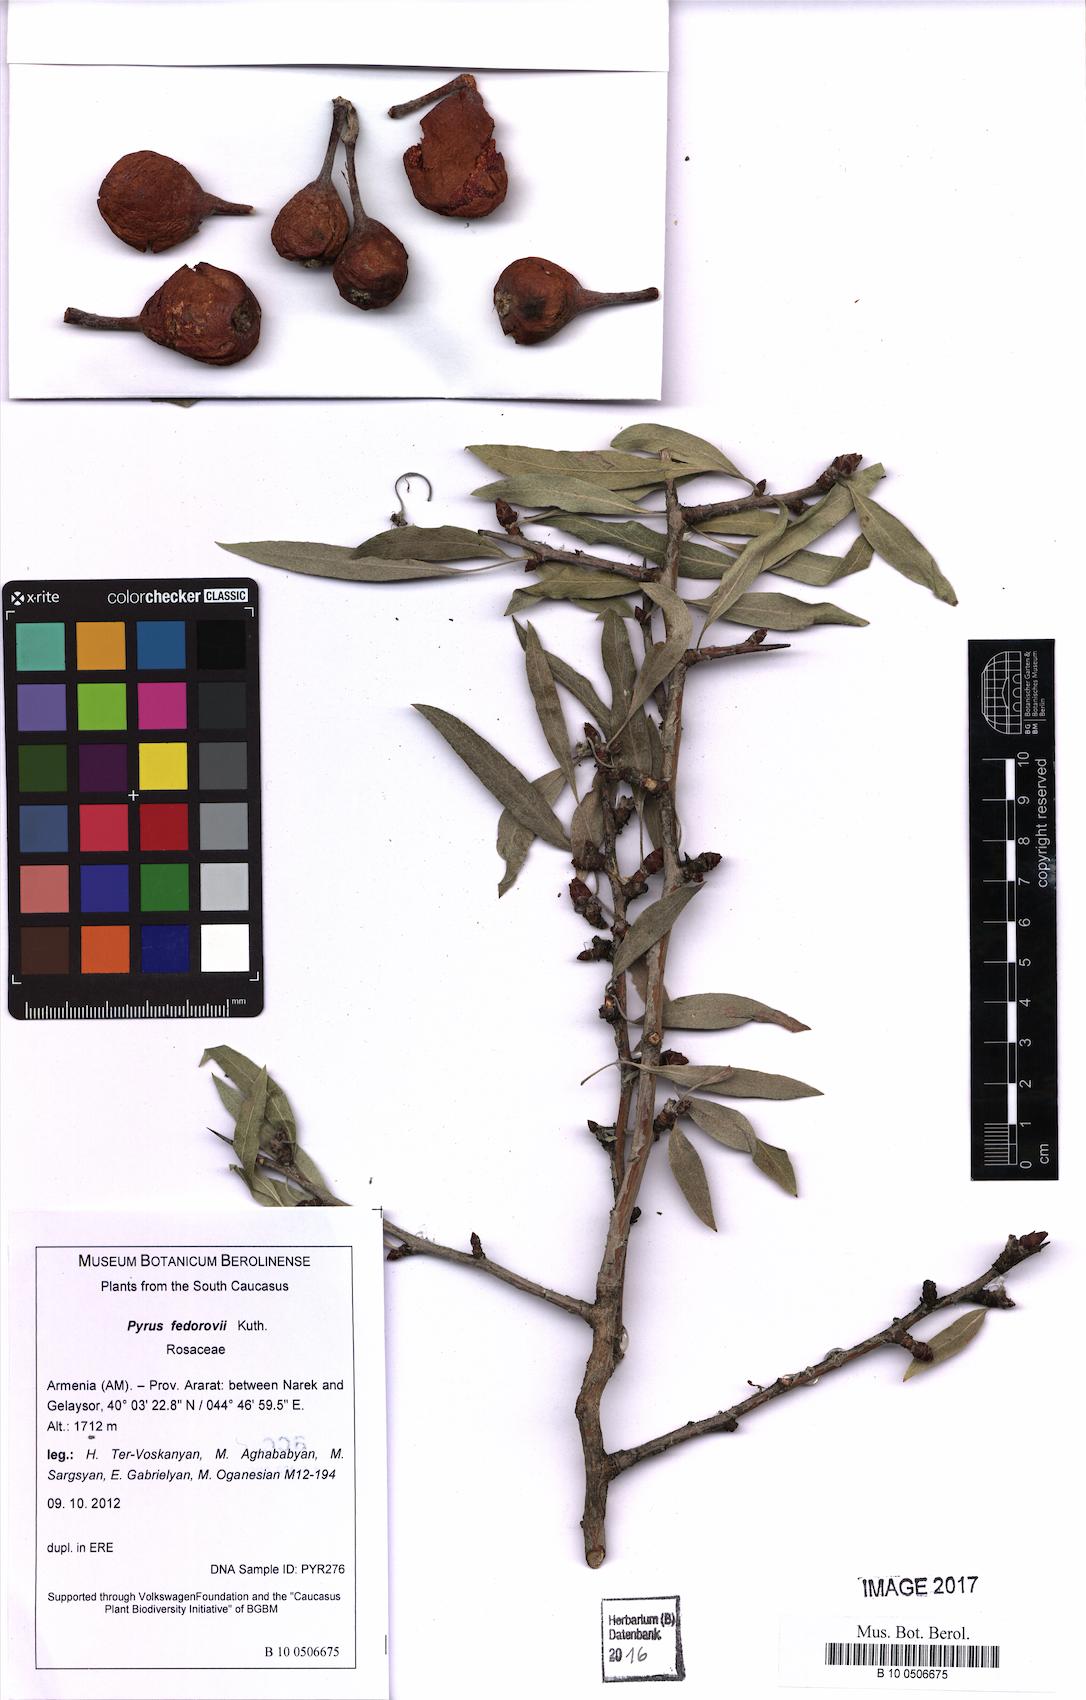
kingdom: Plantae
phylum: Tracheophyta
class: Magnoliopsida
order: Rosales
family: Rosaceae
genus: Pyrus
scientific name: Pyrus fedorovii
